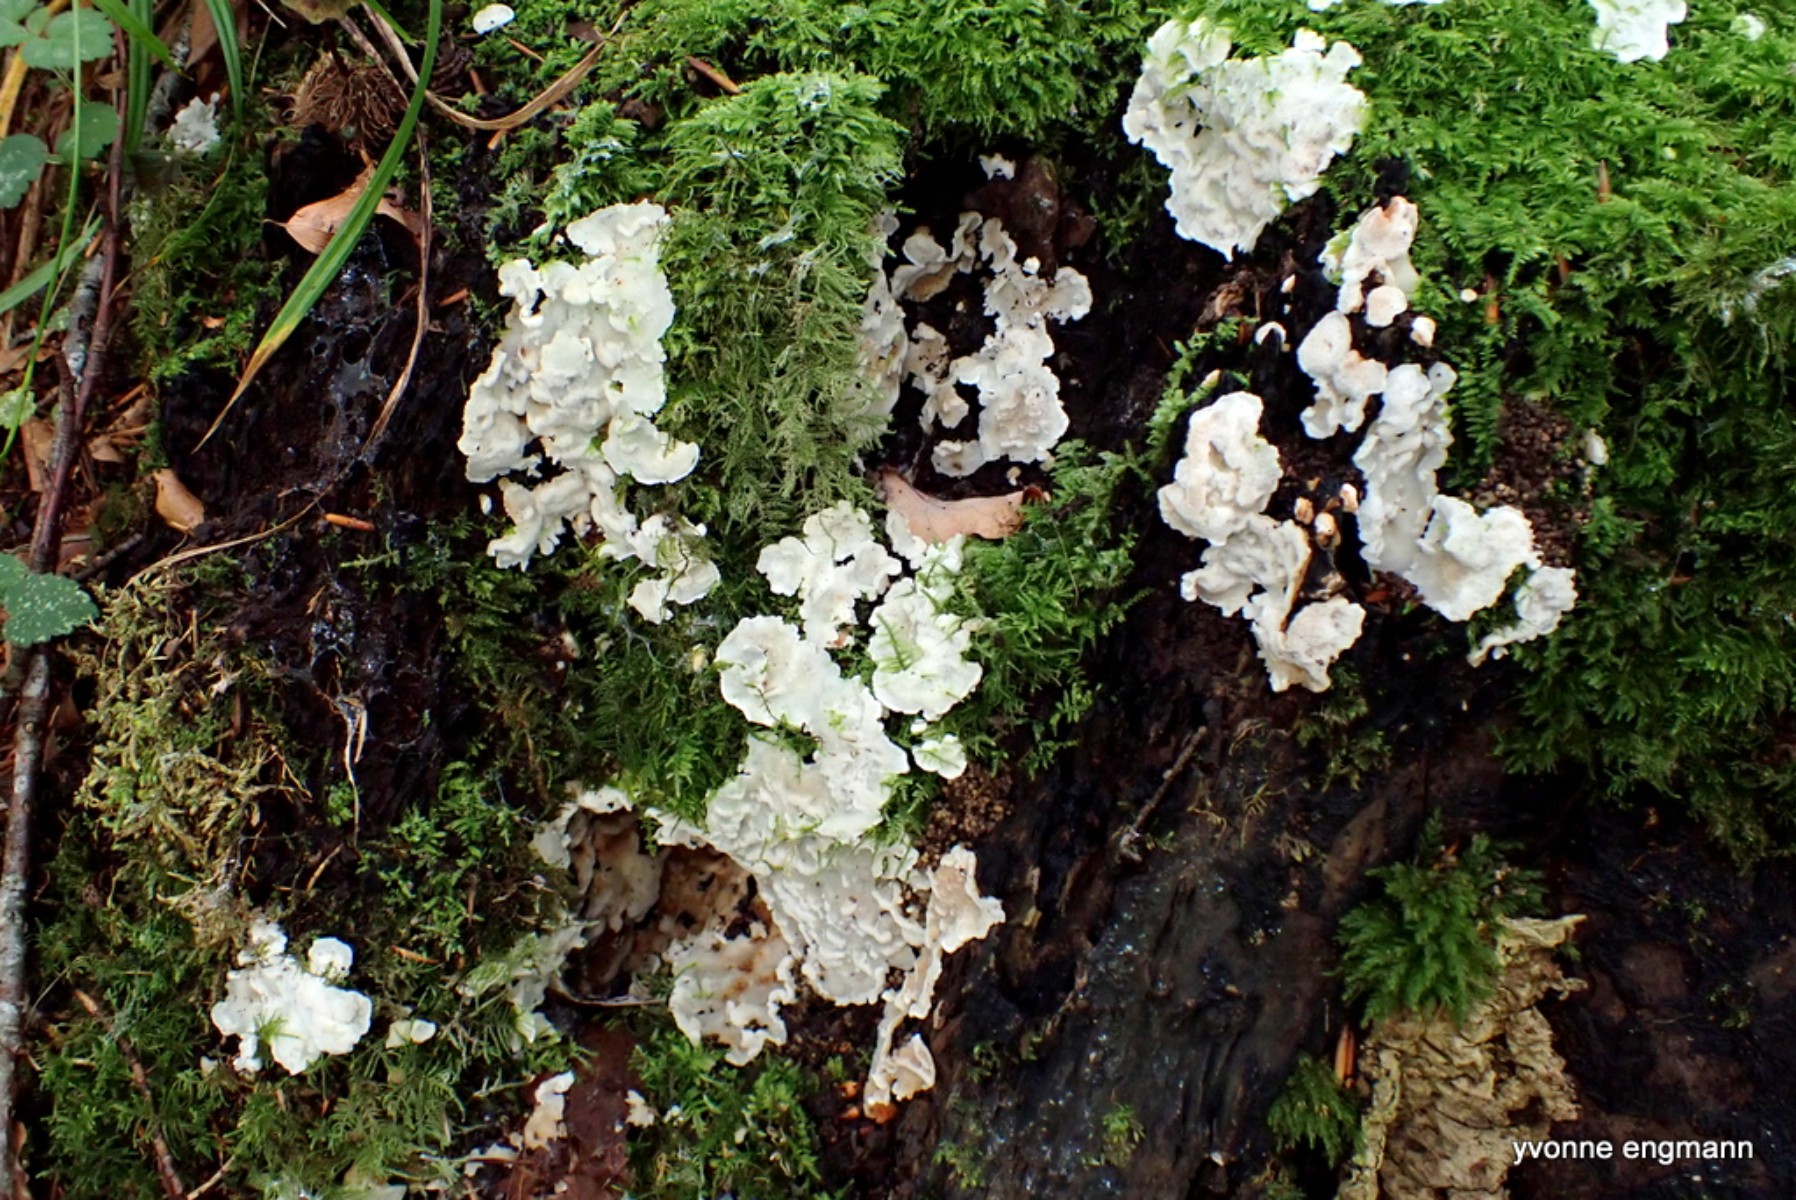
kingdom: Fungi
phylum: Basidiomycota
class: Agaricomycetes
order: Polyporales
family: Meruliaceae
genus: Physisporinus
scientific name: Physisporinus vitreus
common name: mastesvamp
